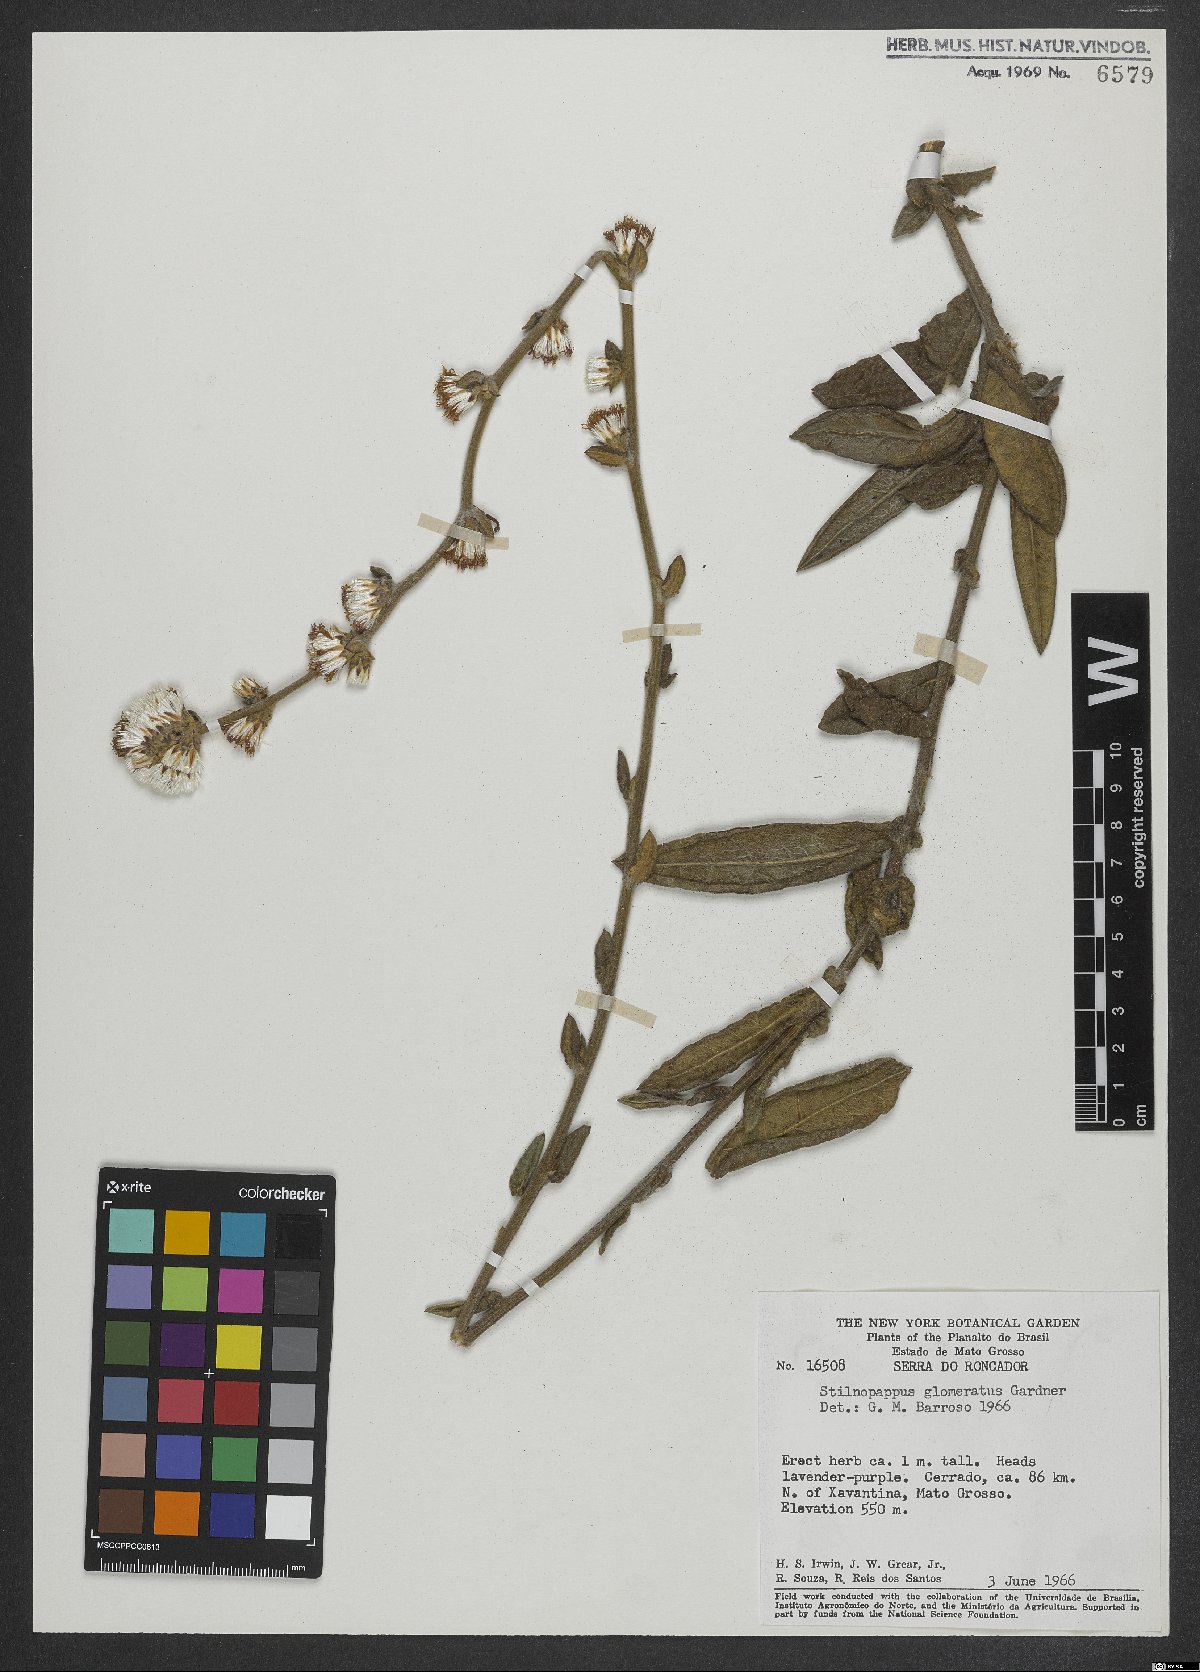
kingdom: Plantae
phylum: Tracheophyta
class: Magnoliopsida
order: Asterales
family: Asteraceae
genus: Stilpnopappus
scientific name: Stilpnopappus glomeratus
